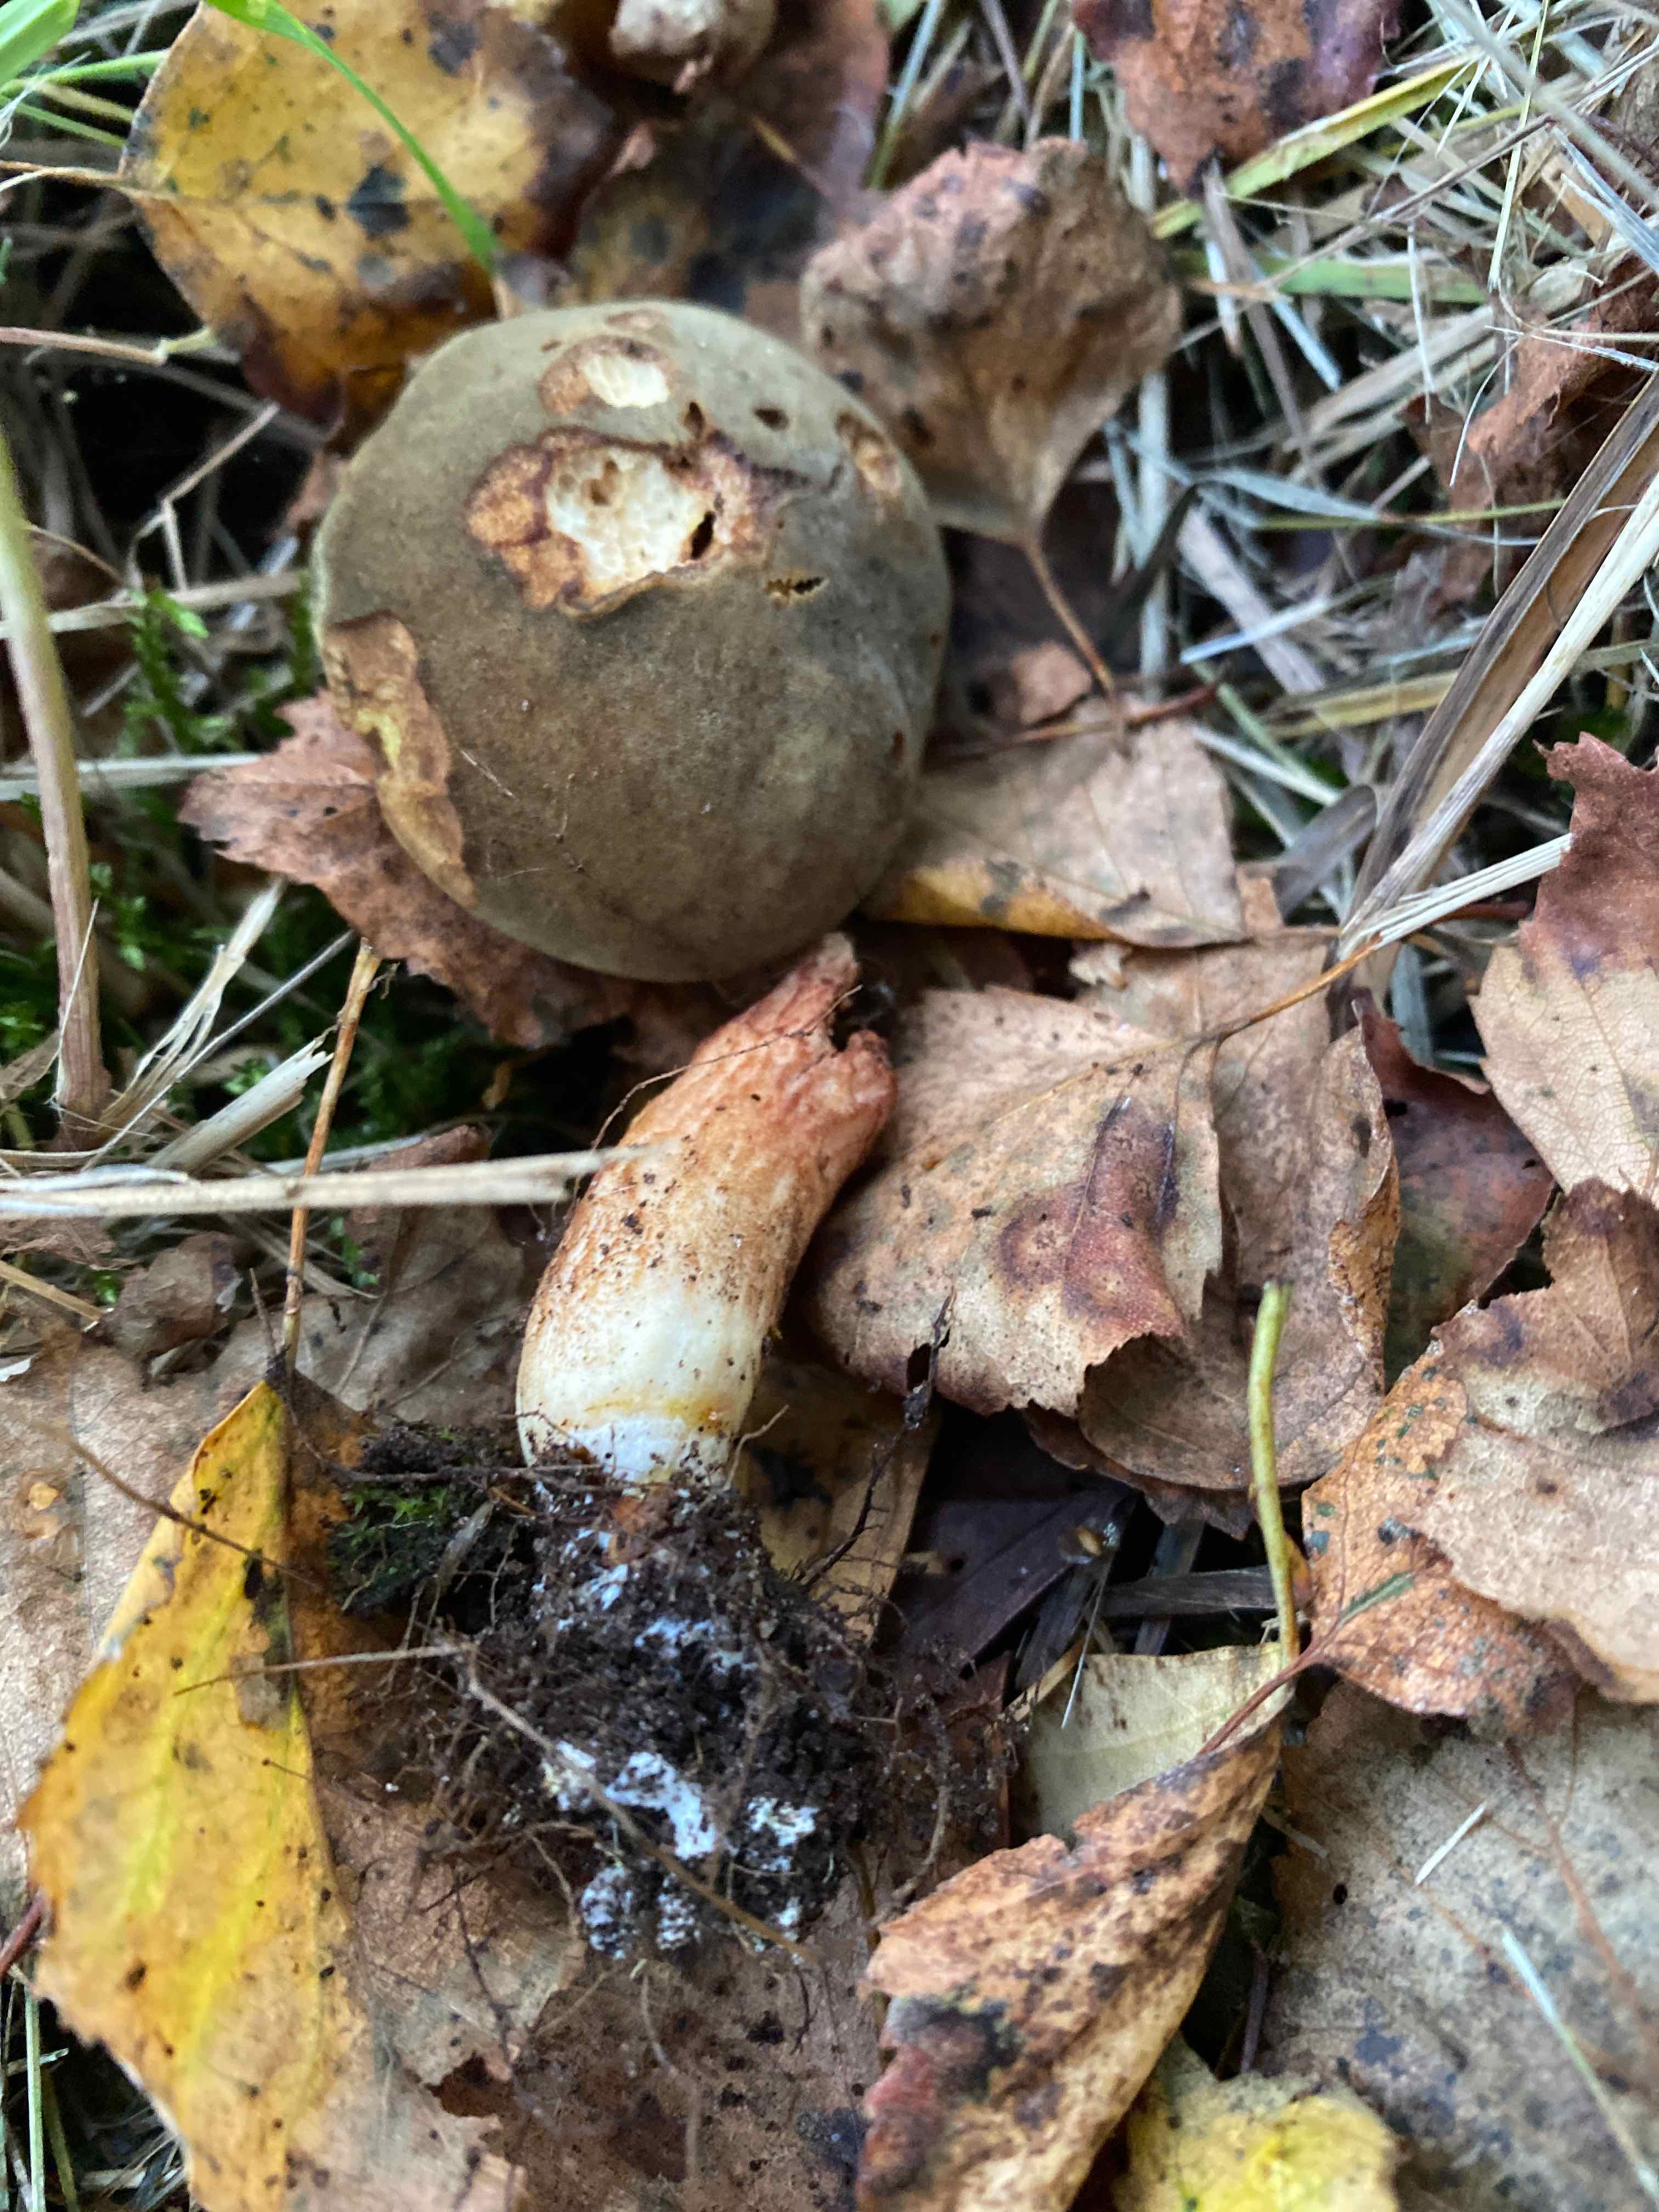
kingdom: Fungi
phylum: Basidiomycota
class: Agaricomycetes
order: Boletales
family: Boletaceae
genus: Xerocomus
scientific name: Xerocomus subtomentosus
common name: filtet rørhat
